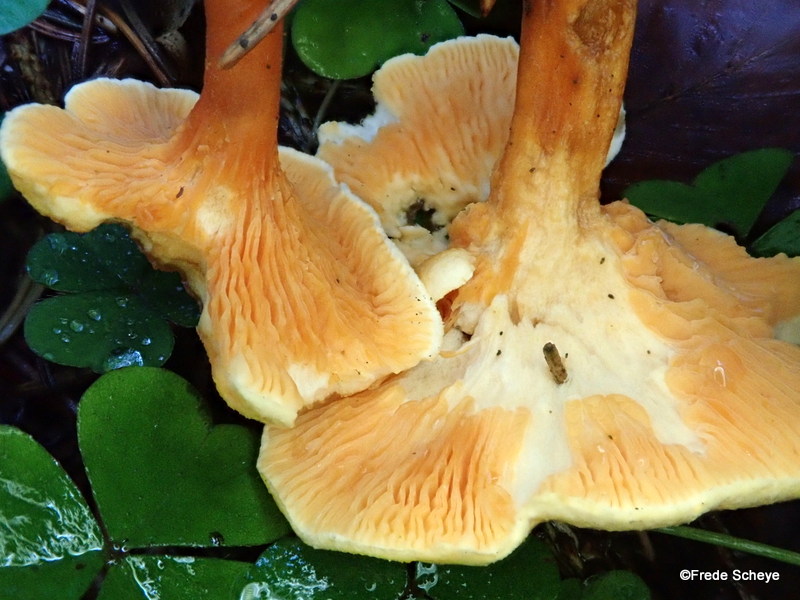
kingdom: Fungi
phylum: Basidiomycota
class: Agaricomycetes
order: Boletales
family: Hygrophoropsidaceae
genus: Hygrophoropsis
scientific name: Hygrophoropsis aurantiaca
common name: almindelig orangekantarel
